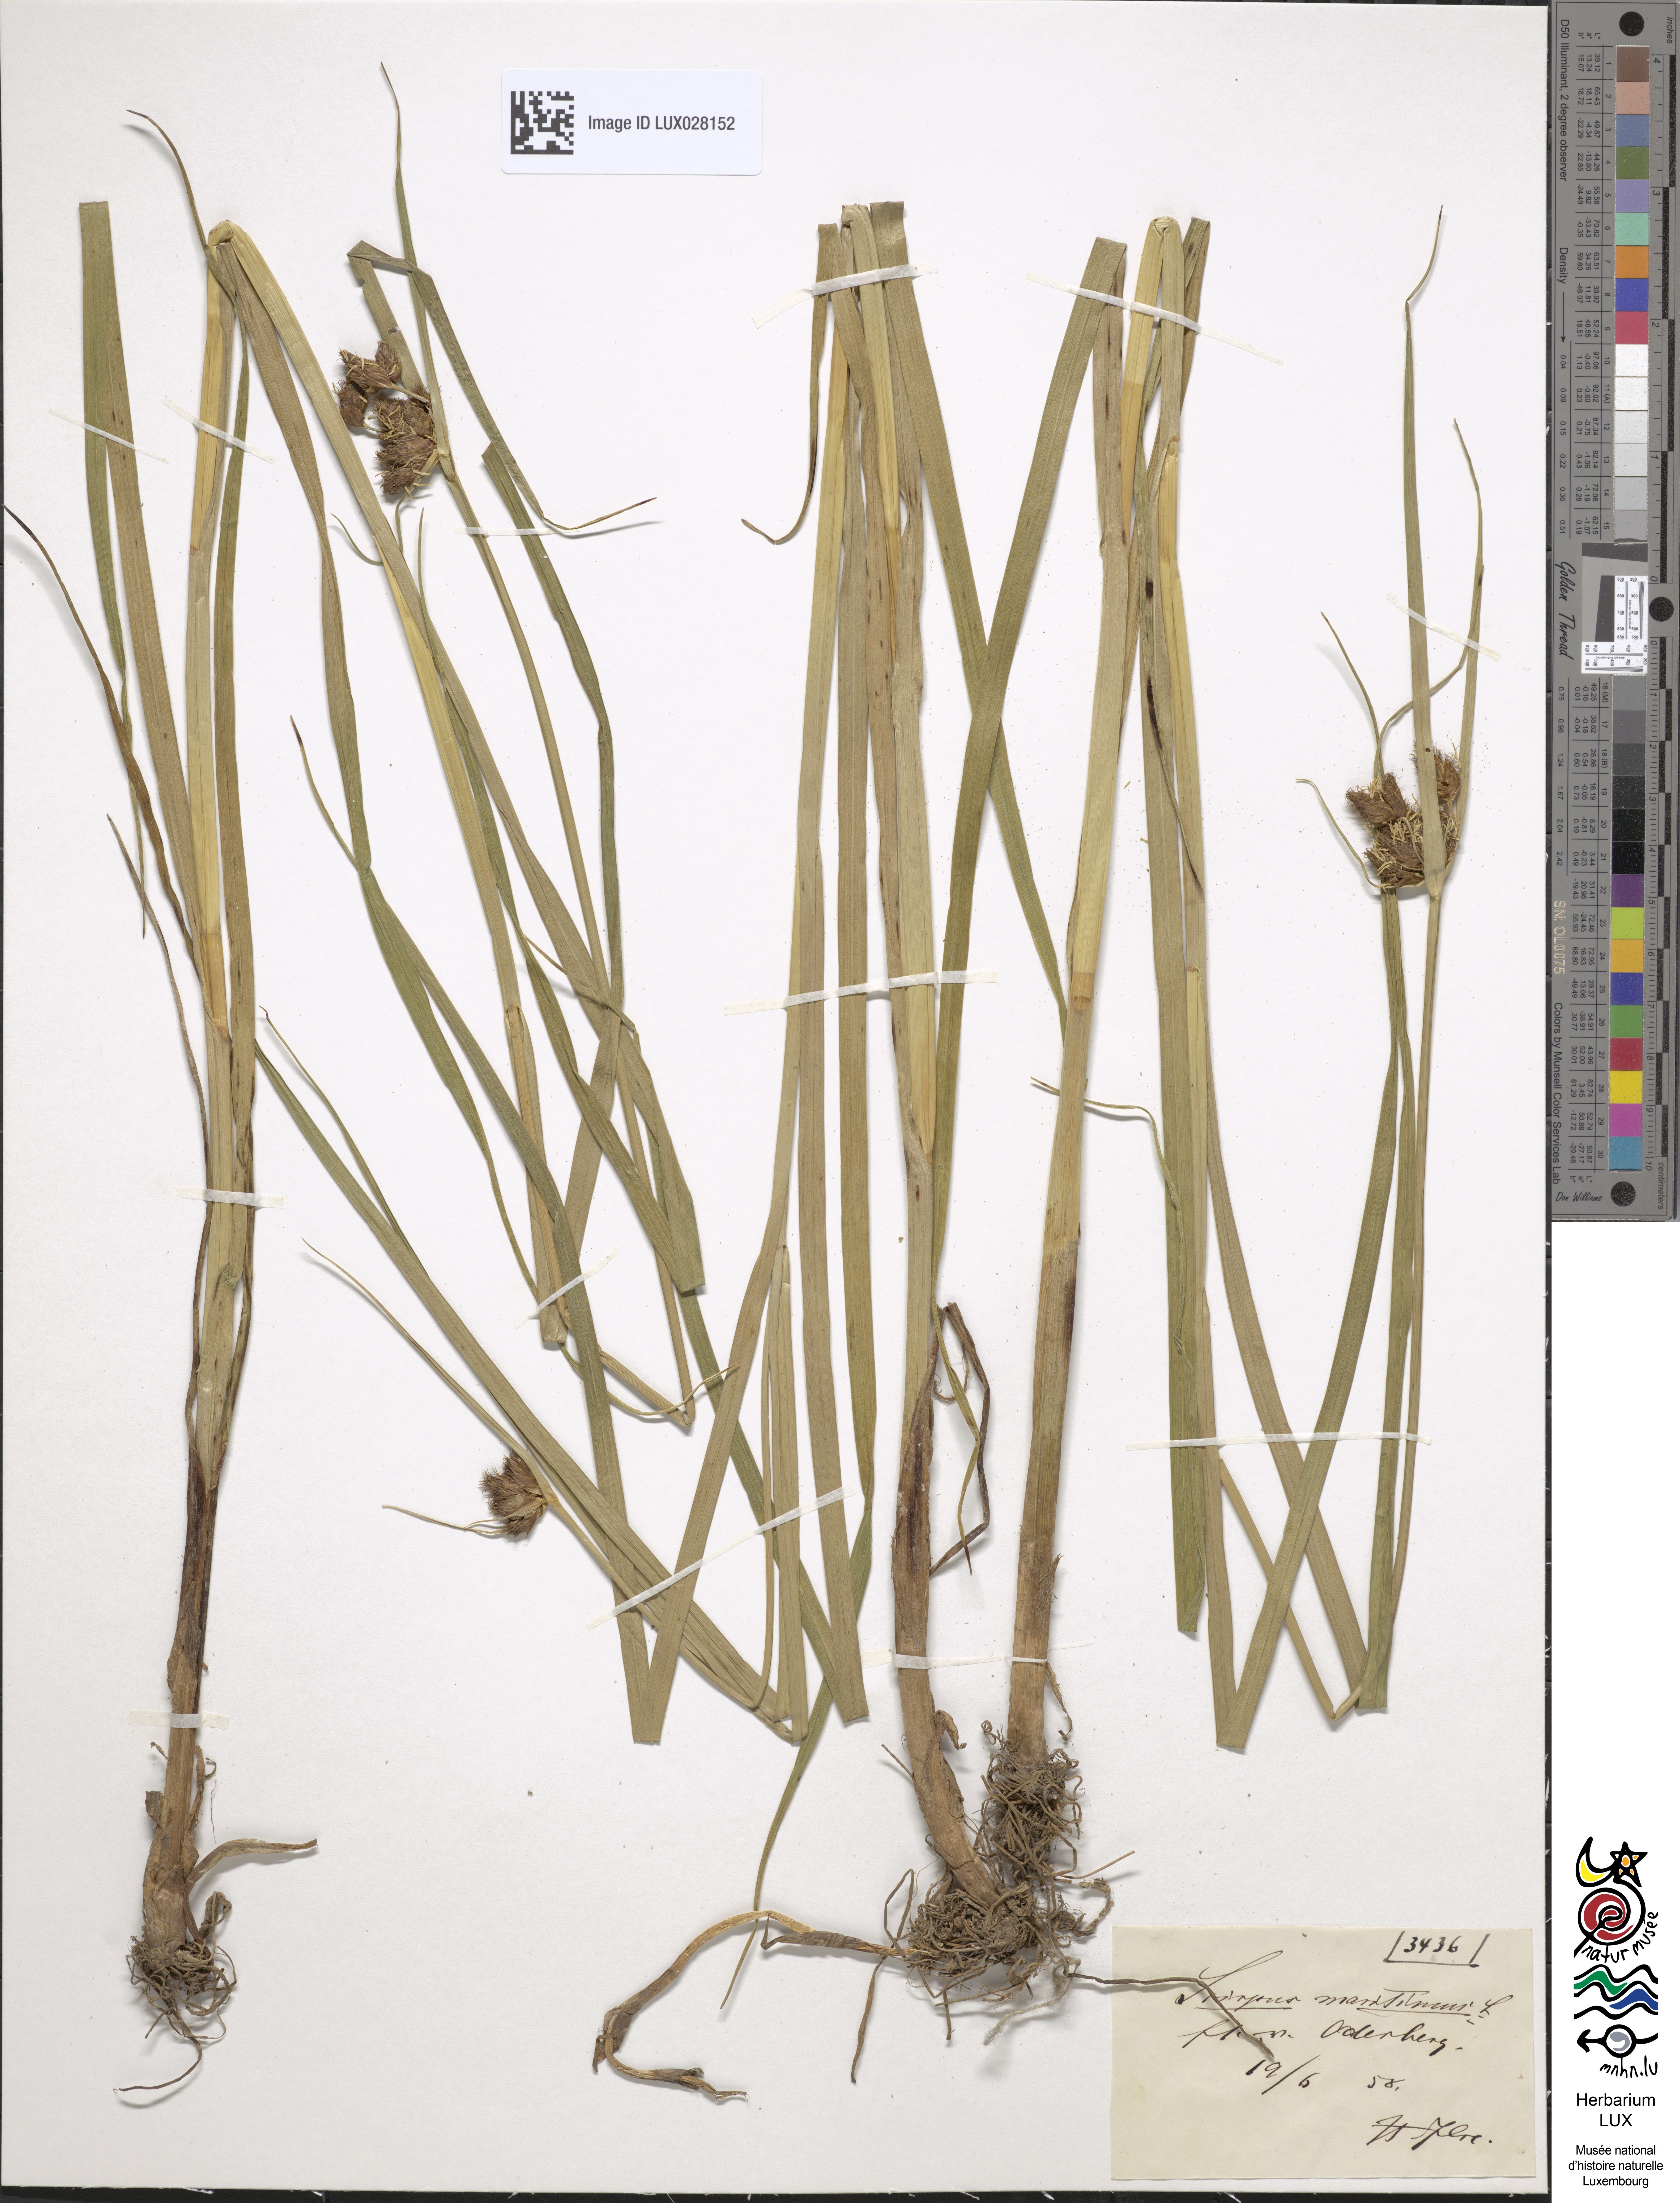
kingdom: Plantae
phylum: Tracheophyta
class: Liliopsida
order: Poales
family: Cyperaceae
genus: Bolboschoenus
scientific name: Bolboschoenus maritimus
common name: Sea club-rush
